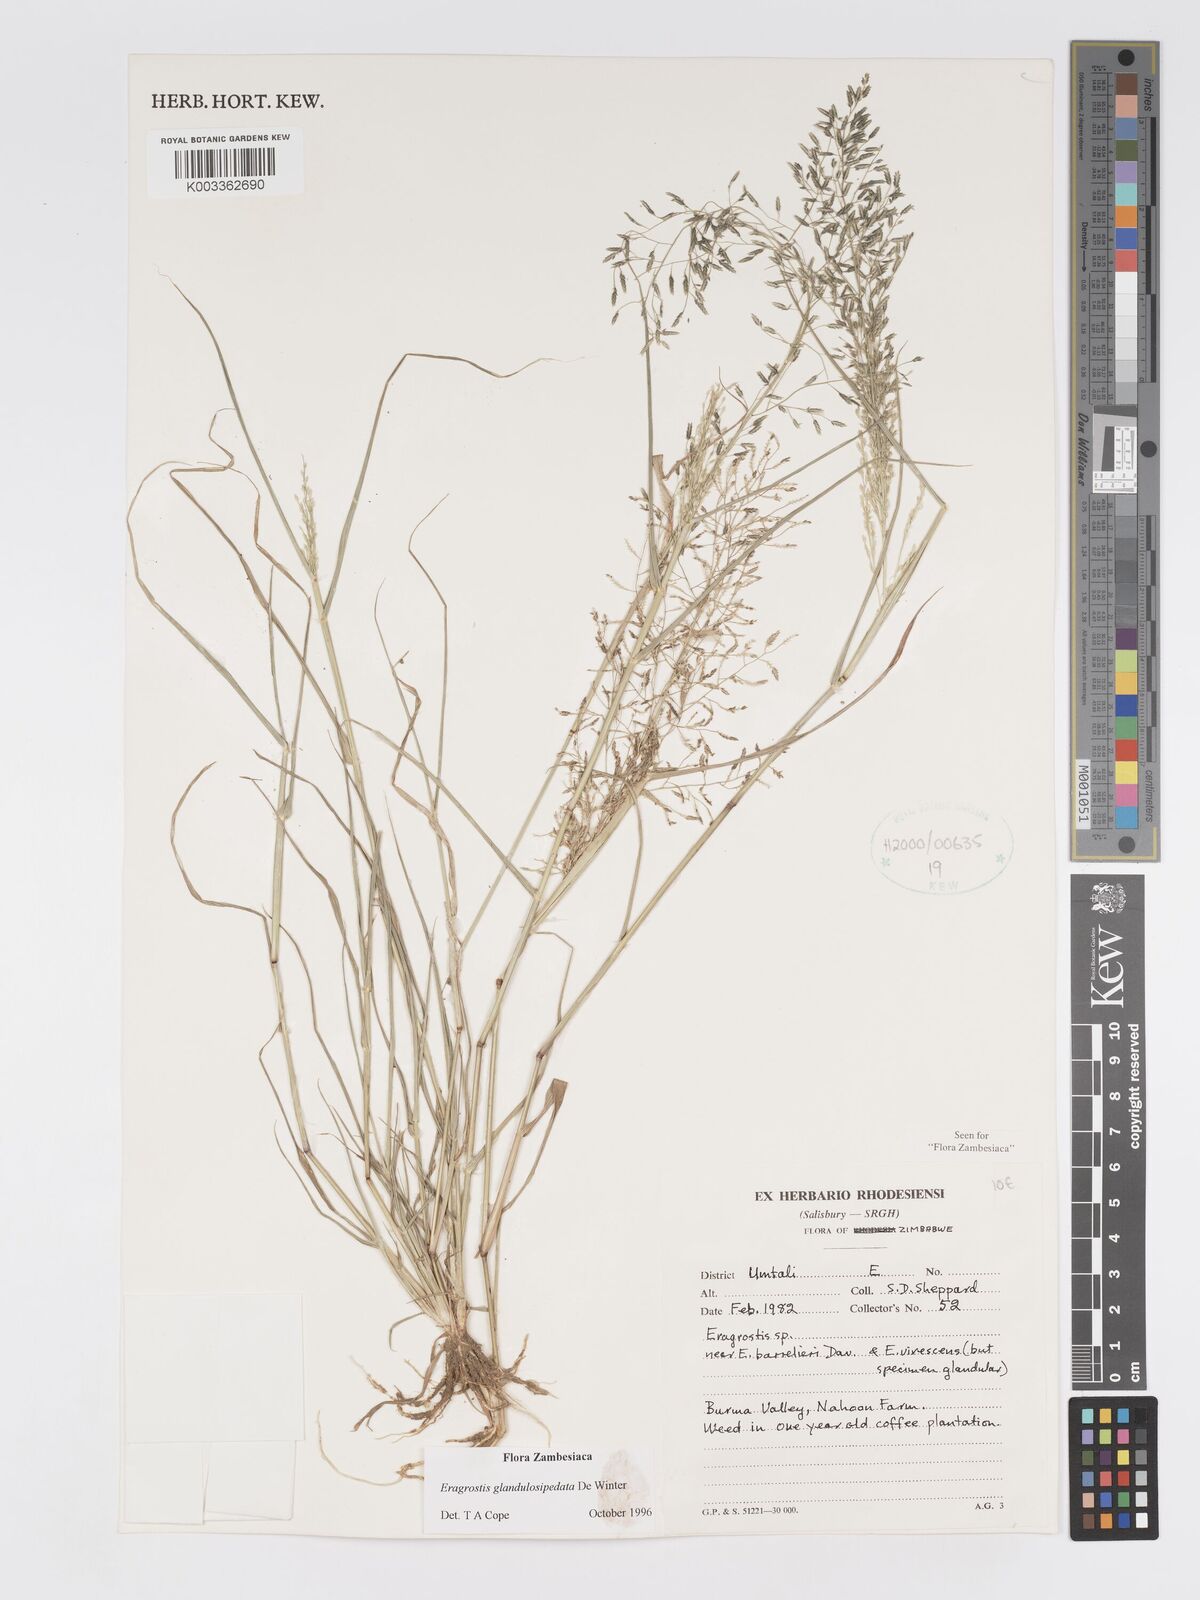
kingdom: Plantae
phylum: Tracheophyta
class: Liliopsida
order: Poales
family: Poaceae
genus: Eragrostis
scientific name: Eragrostis glandulosipedata
